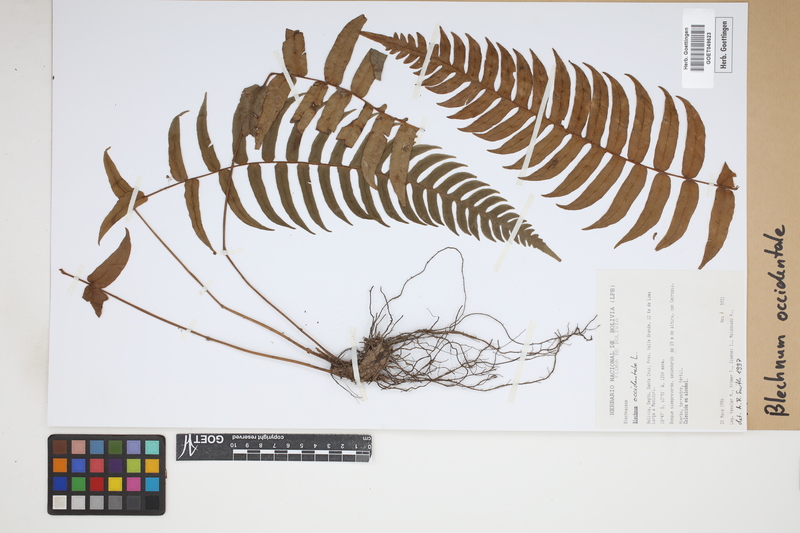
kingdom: Plantae
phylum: Tracheophyta
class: Polypodiopsida
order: Polypodiales
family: Blechnaceae
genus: Blechnum
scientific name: Blechnum occidentale
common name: Hammock fern
